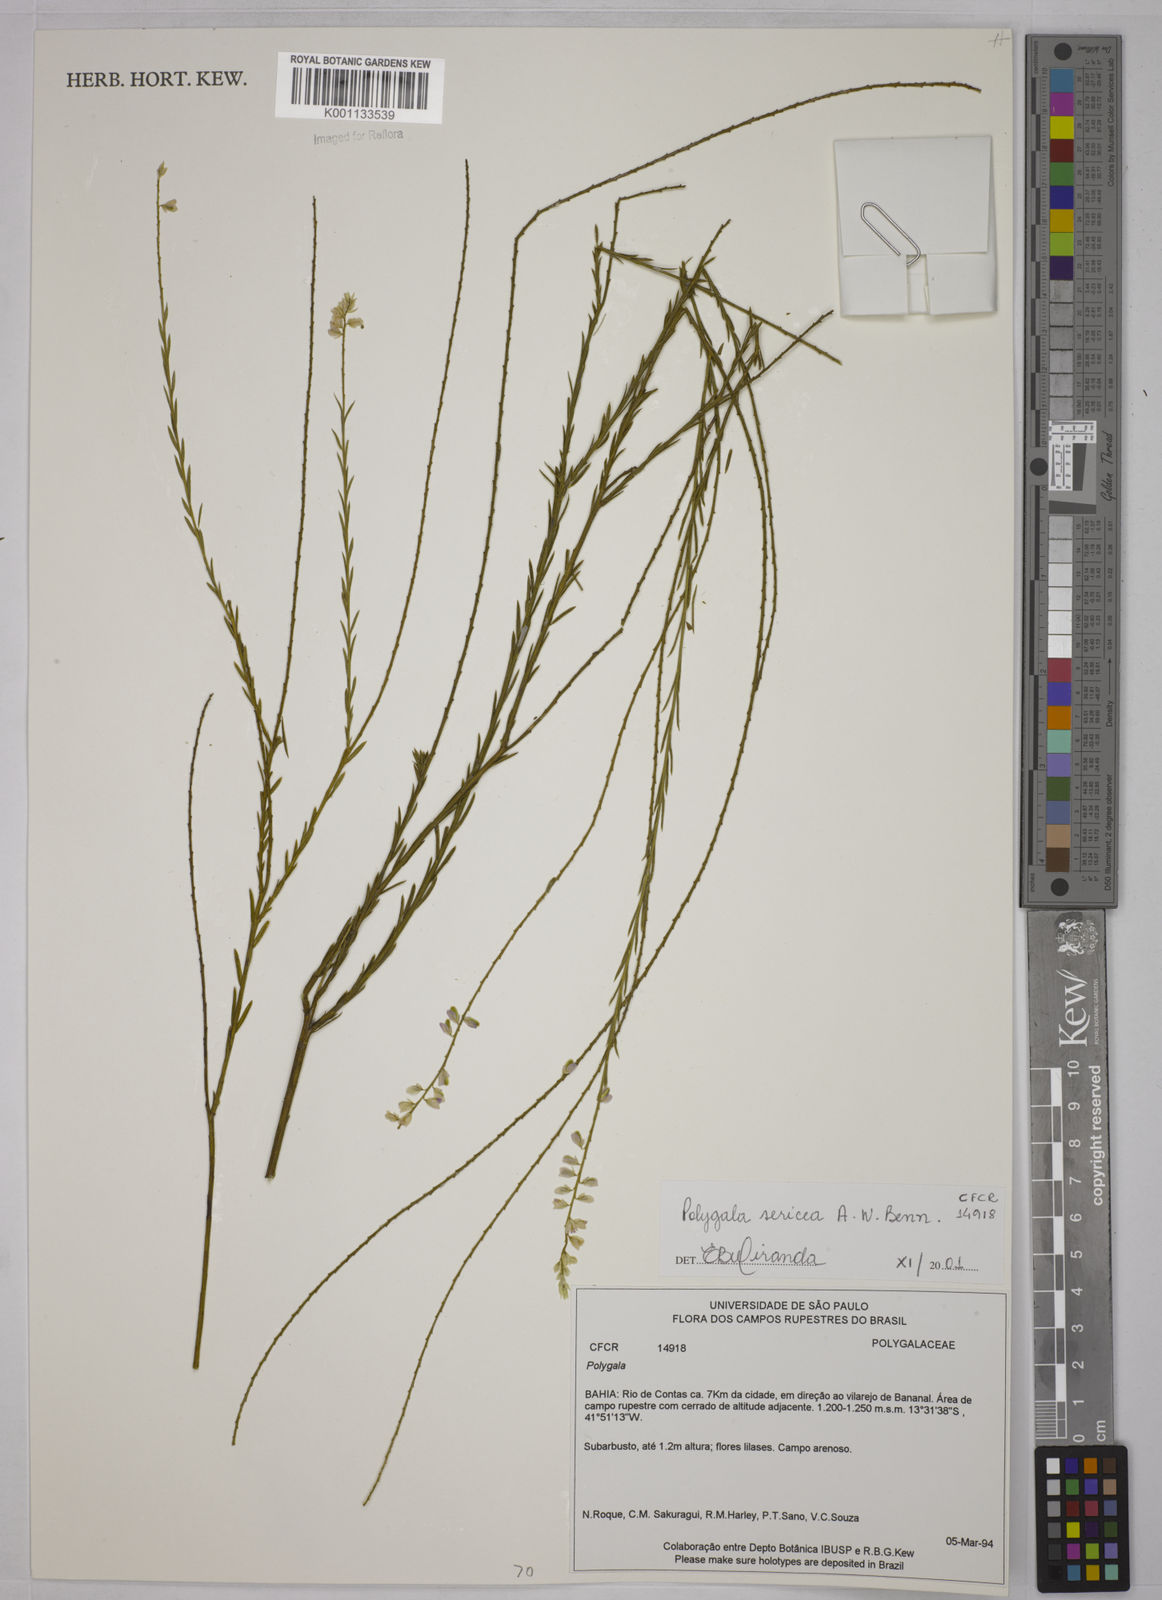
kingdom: Plantae
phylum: Tracheophyta
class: Magnoliopsida
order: Fabales
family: Polygalaceae
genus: Polygala
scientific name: Polygala sericea
